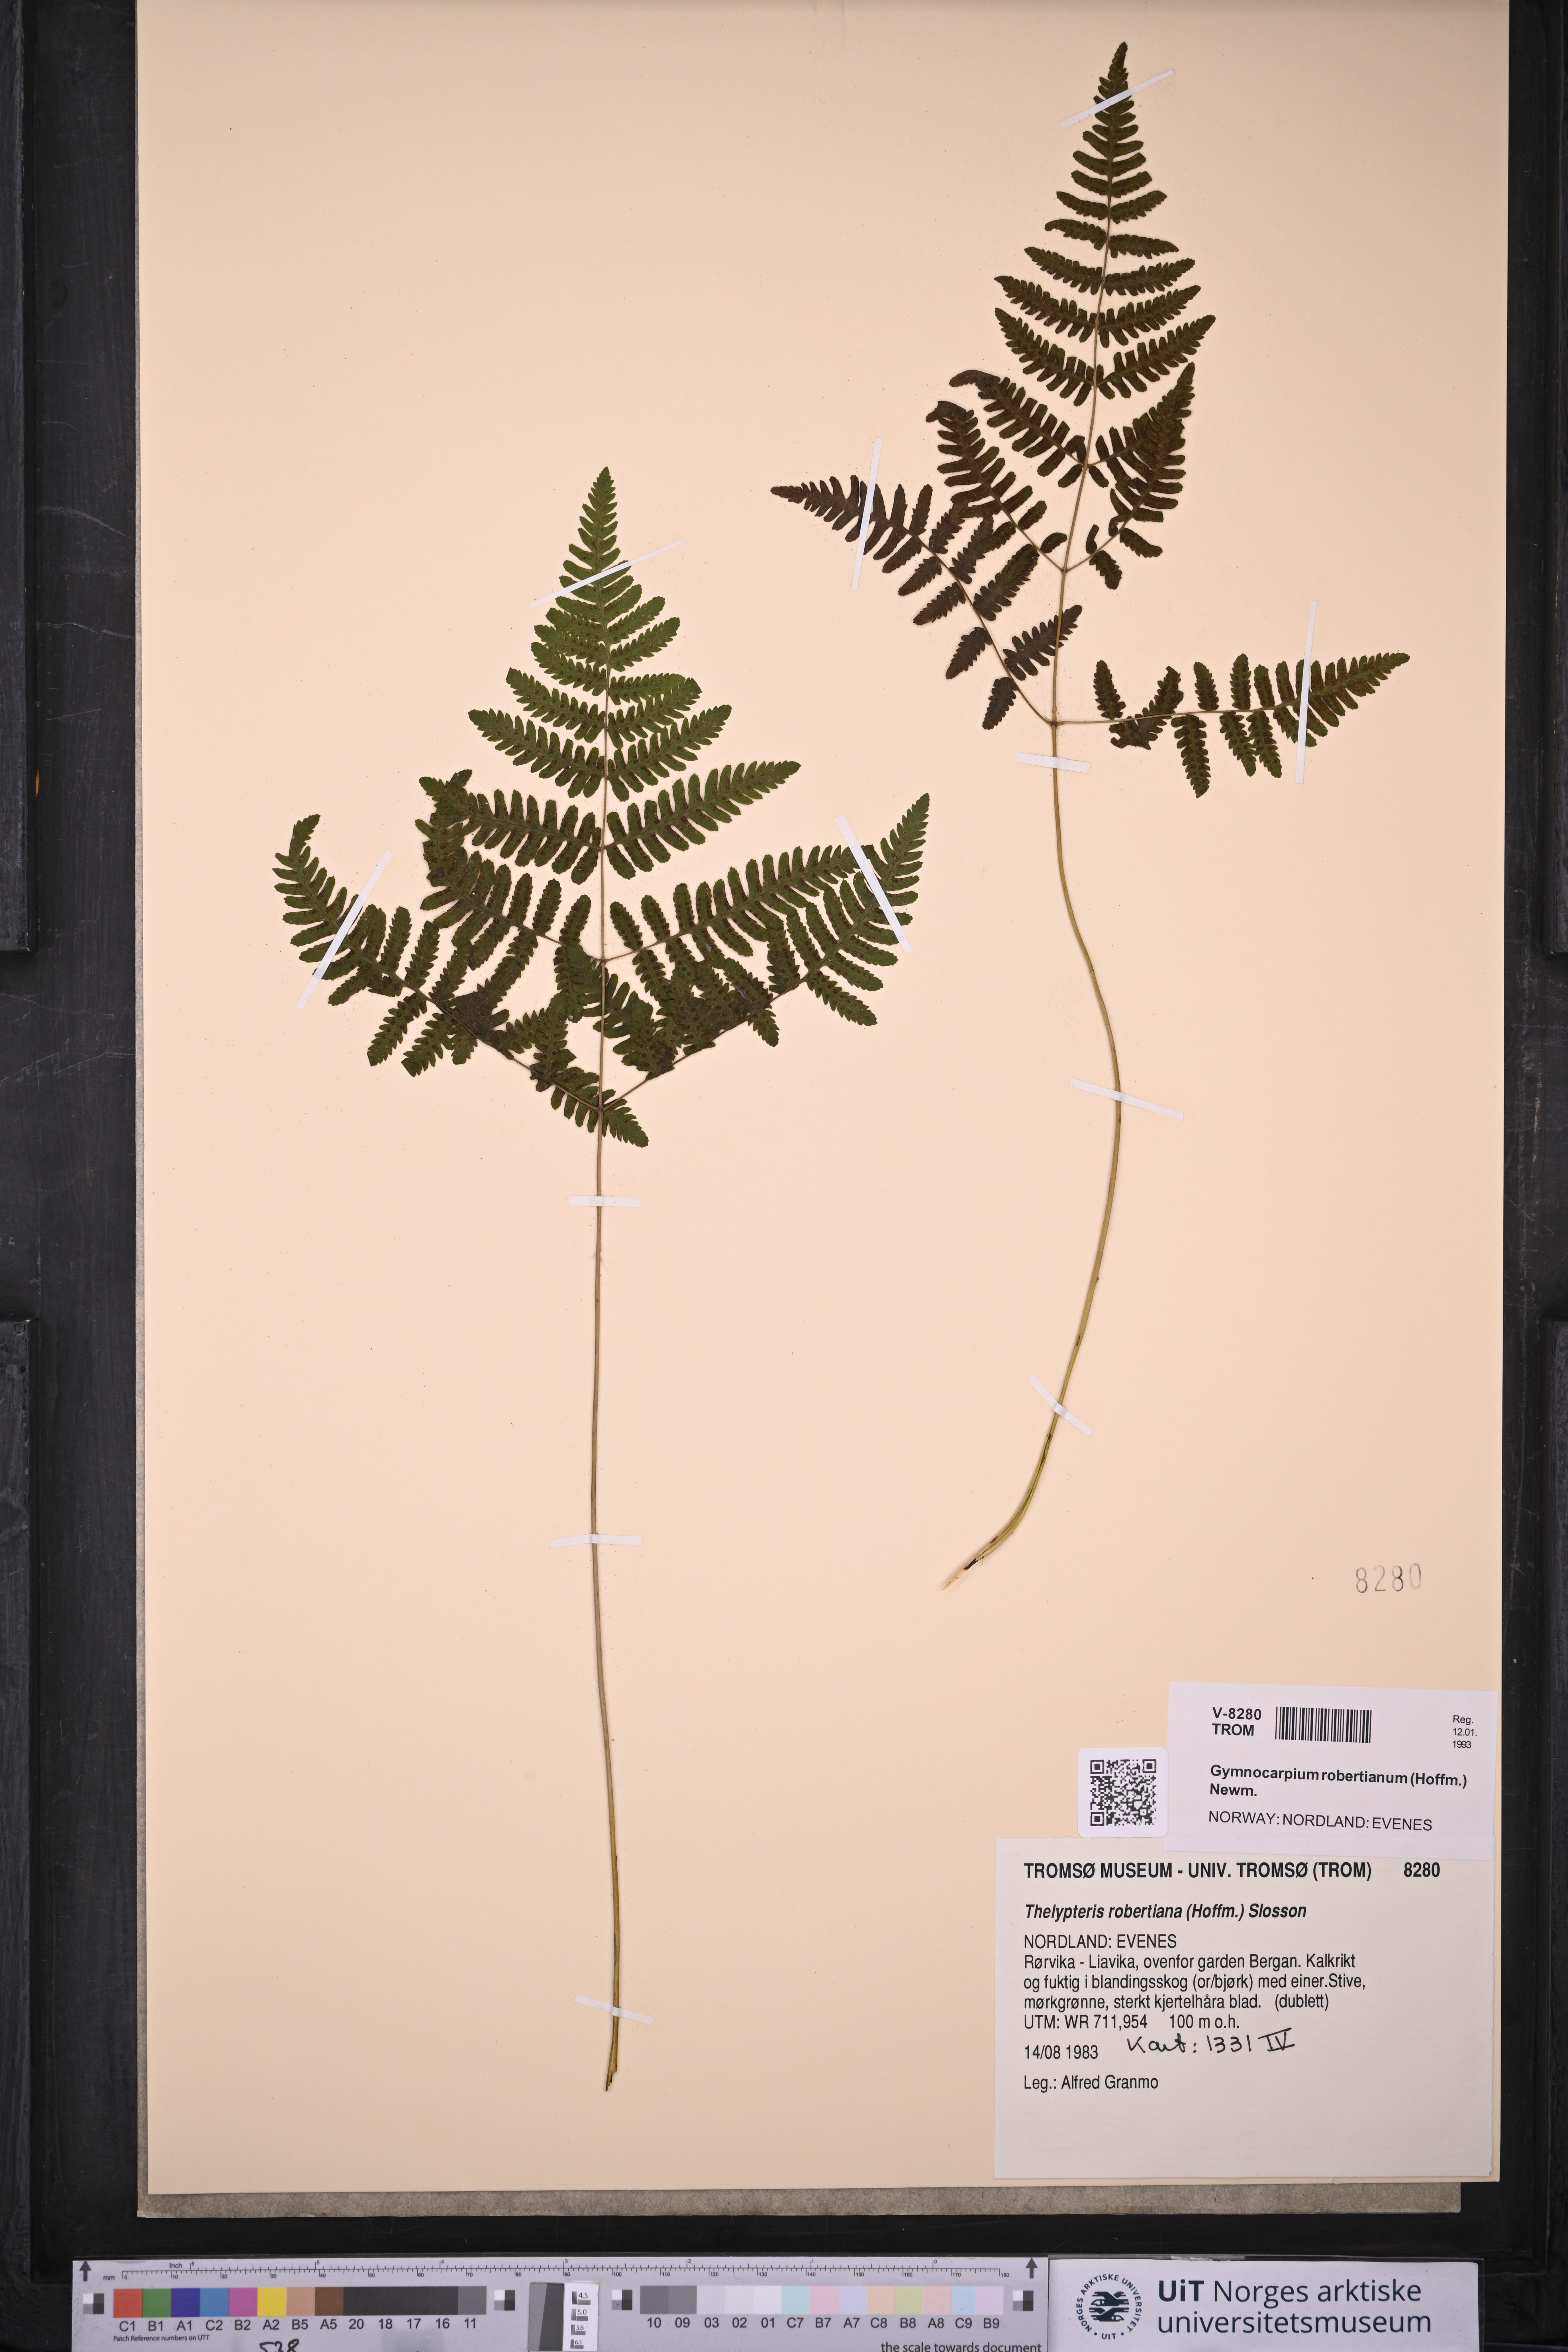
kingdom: Plantae
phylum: Tracheophyta
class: Polypodiopsida
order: Polypodiales
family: Cystopteridaceae
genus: Gymnocarpium
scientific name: Gymnocarpium robertianum
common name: Limestone fern
